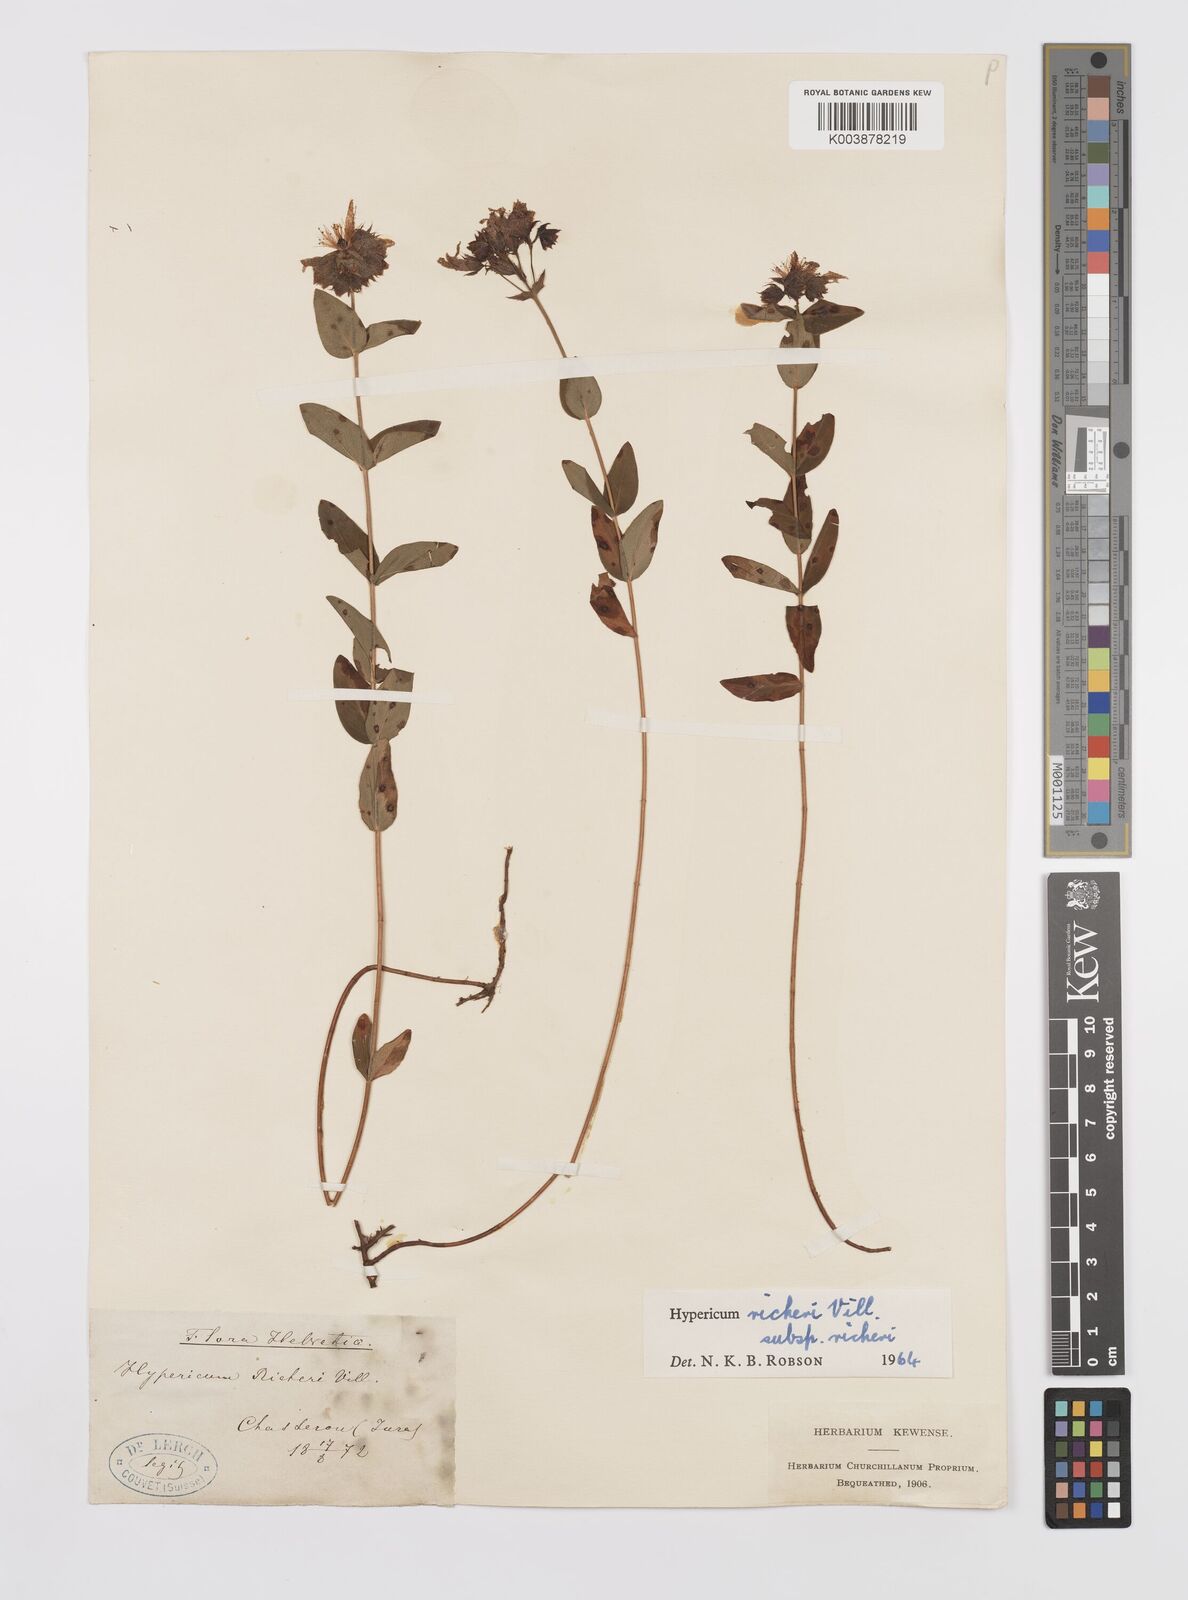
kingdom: Plantae
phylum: Tracheophyta
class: Magnoliopsida
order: Malpighiales
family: Hypericaceae
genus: Hypericum
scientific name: Hypericum richeri
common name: Alpine st john's-wort
